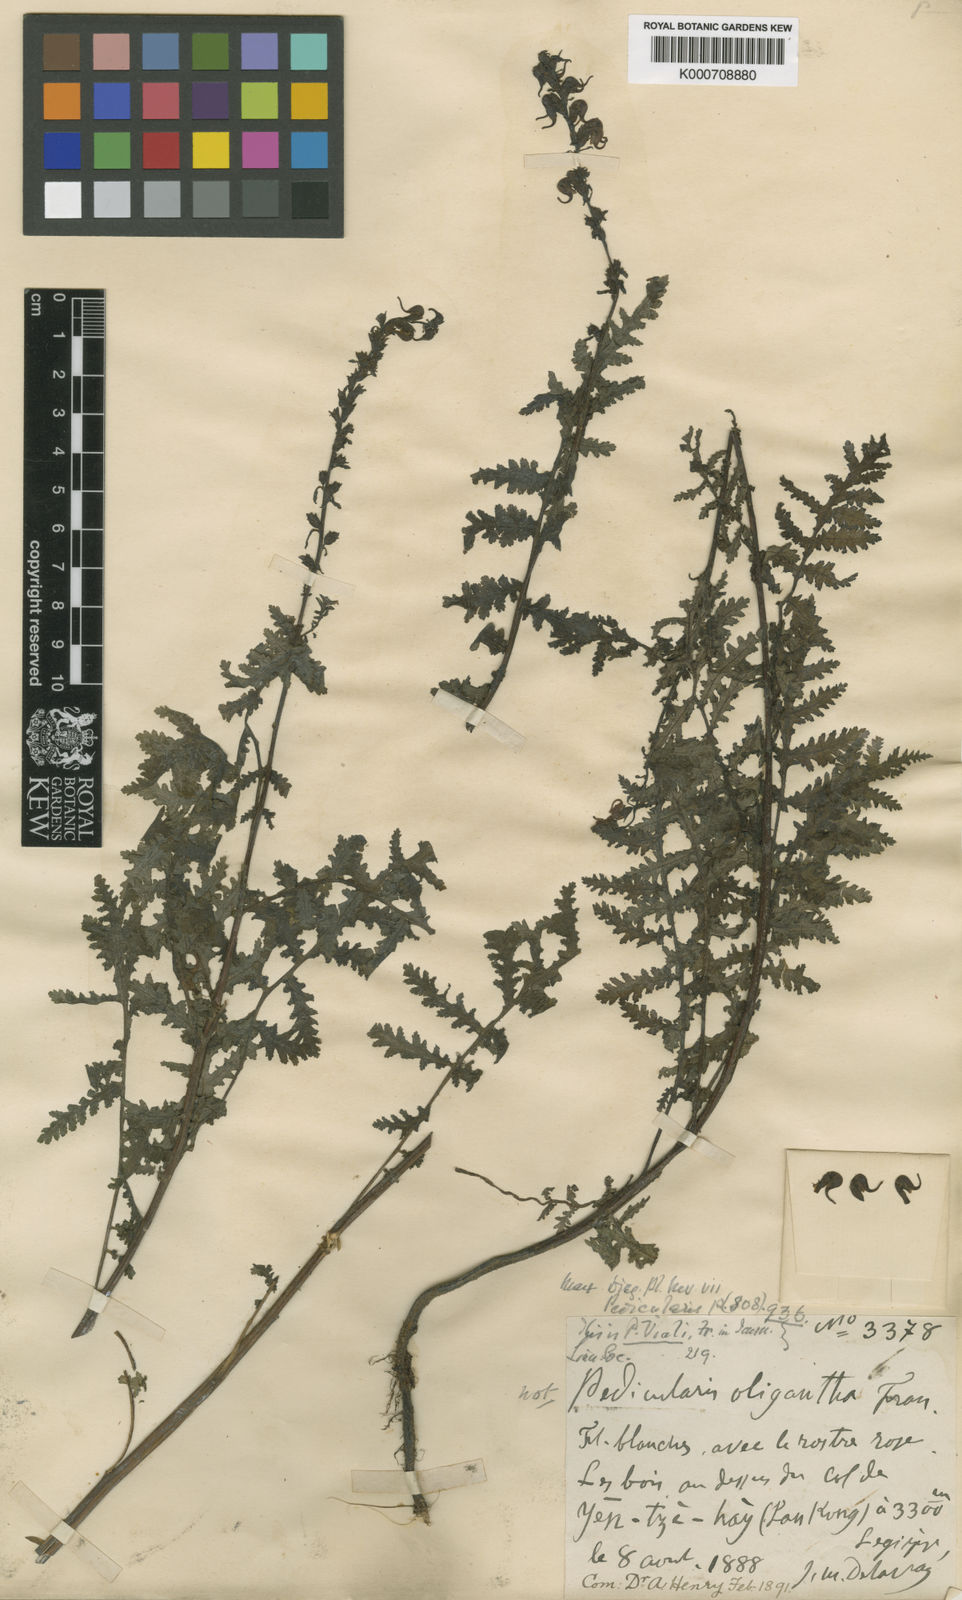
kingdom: Plantae
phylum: Tracheophyta
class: Magnoliopsida
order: Lamiales
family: Orobanchaceae
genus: Pedicularis
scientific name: Pedicularis
